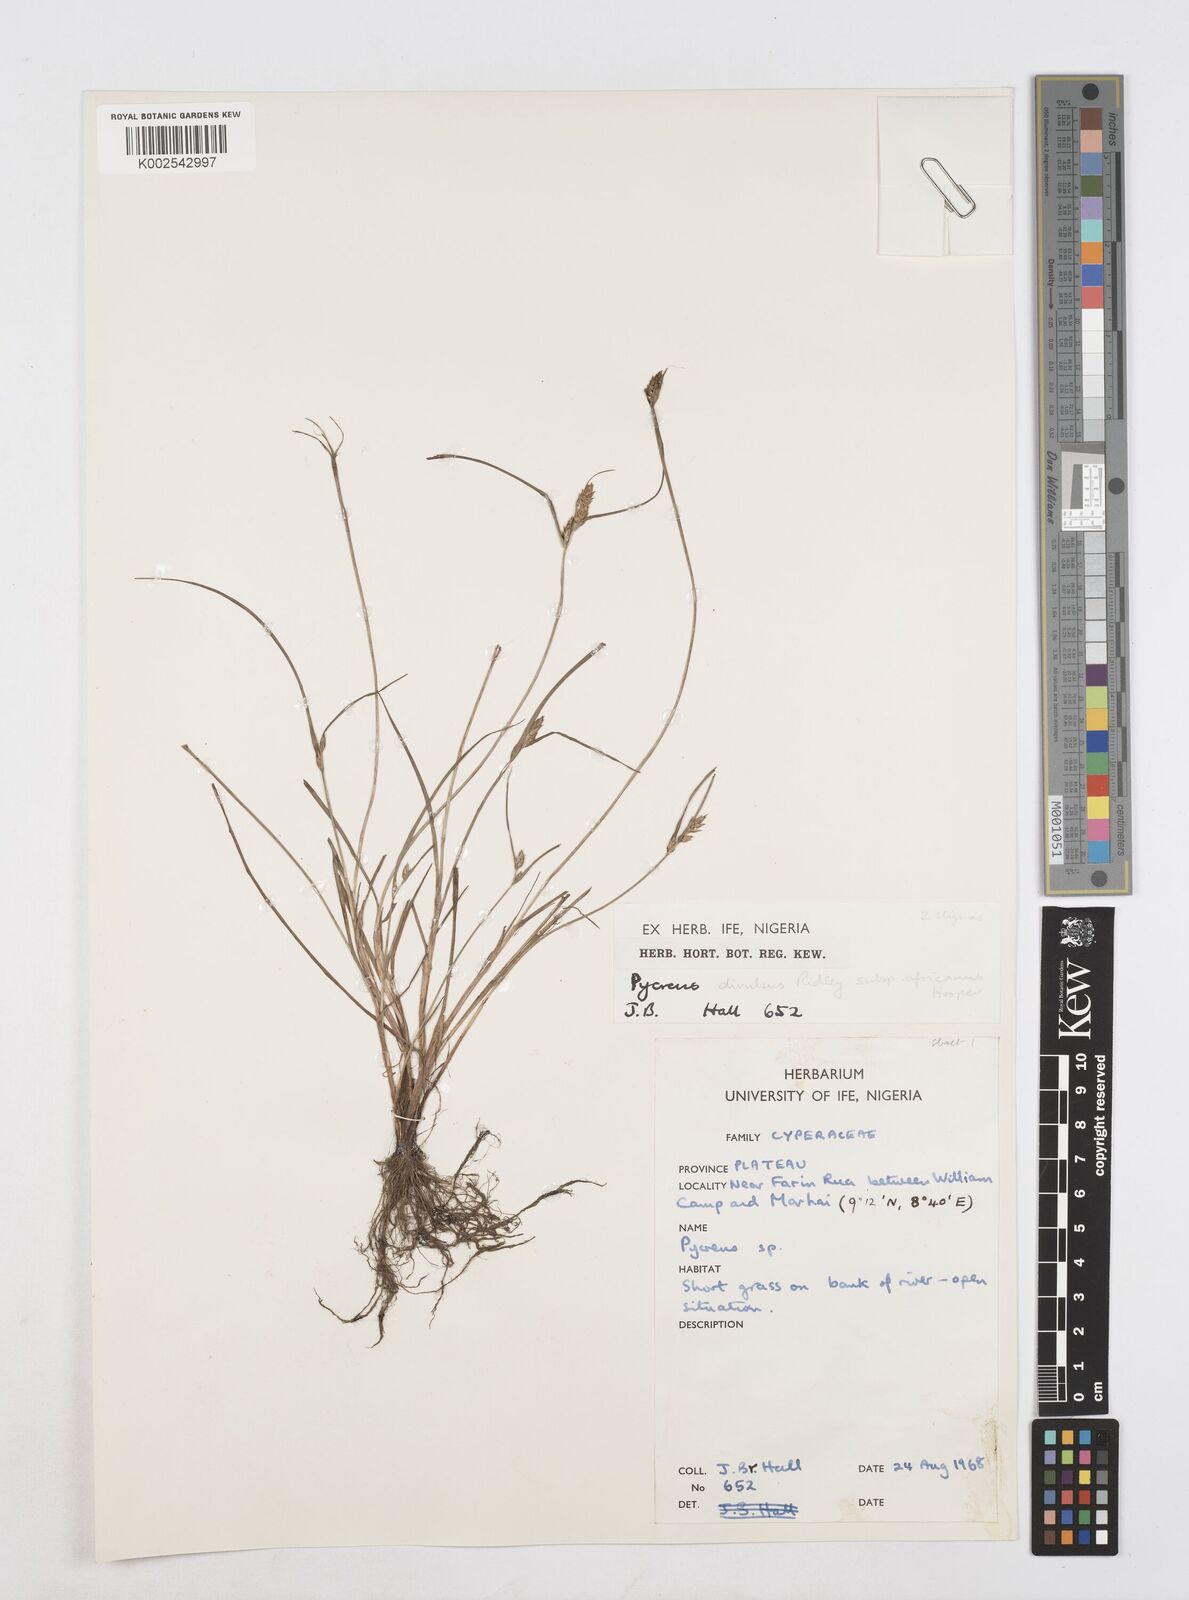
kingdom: Plantae
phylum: Tracheophyta
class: Liliopsida
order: Poales
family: Cyperaceae
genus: Cyperus
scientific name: Cyperus divulsus
